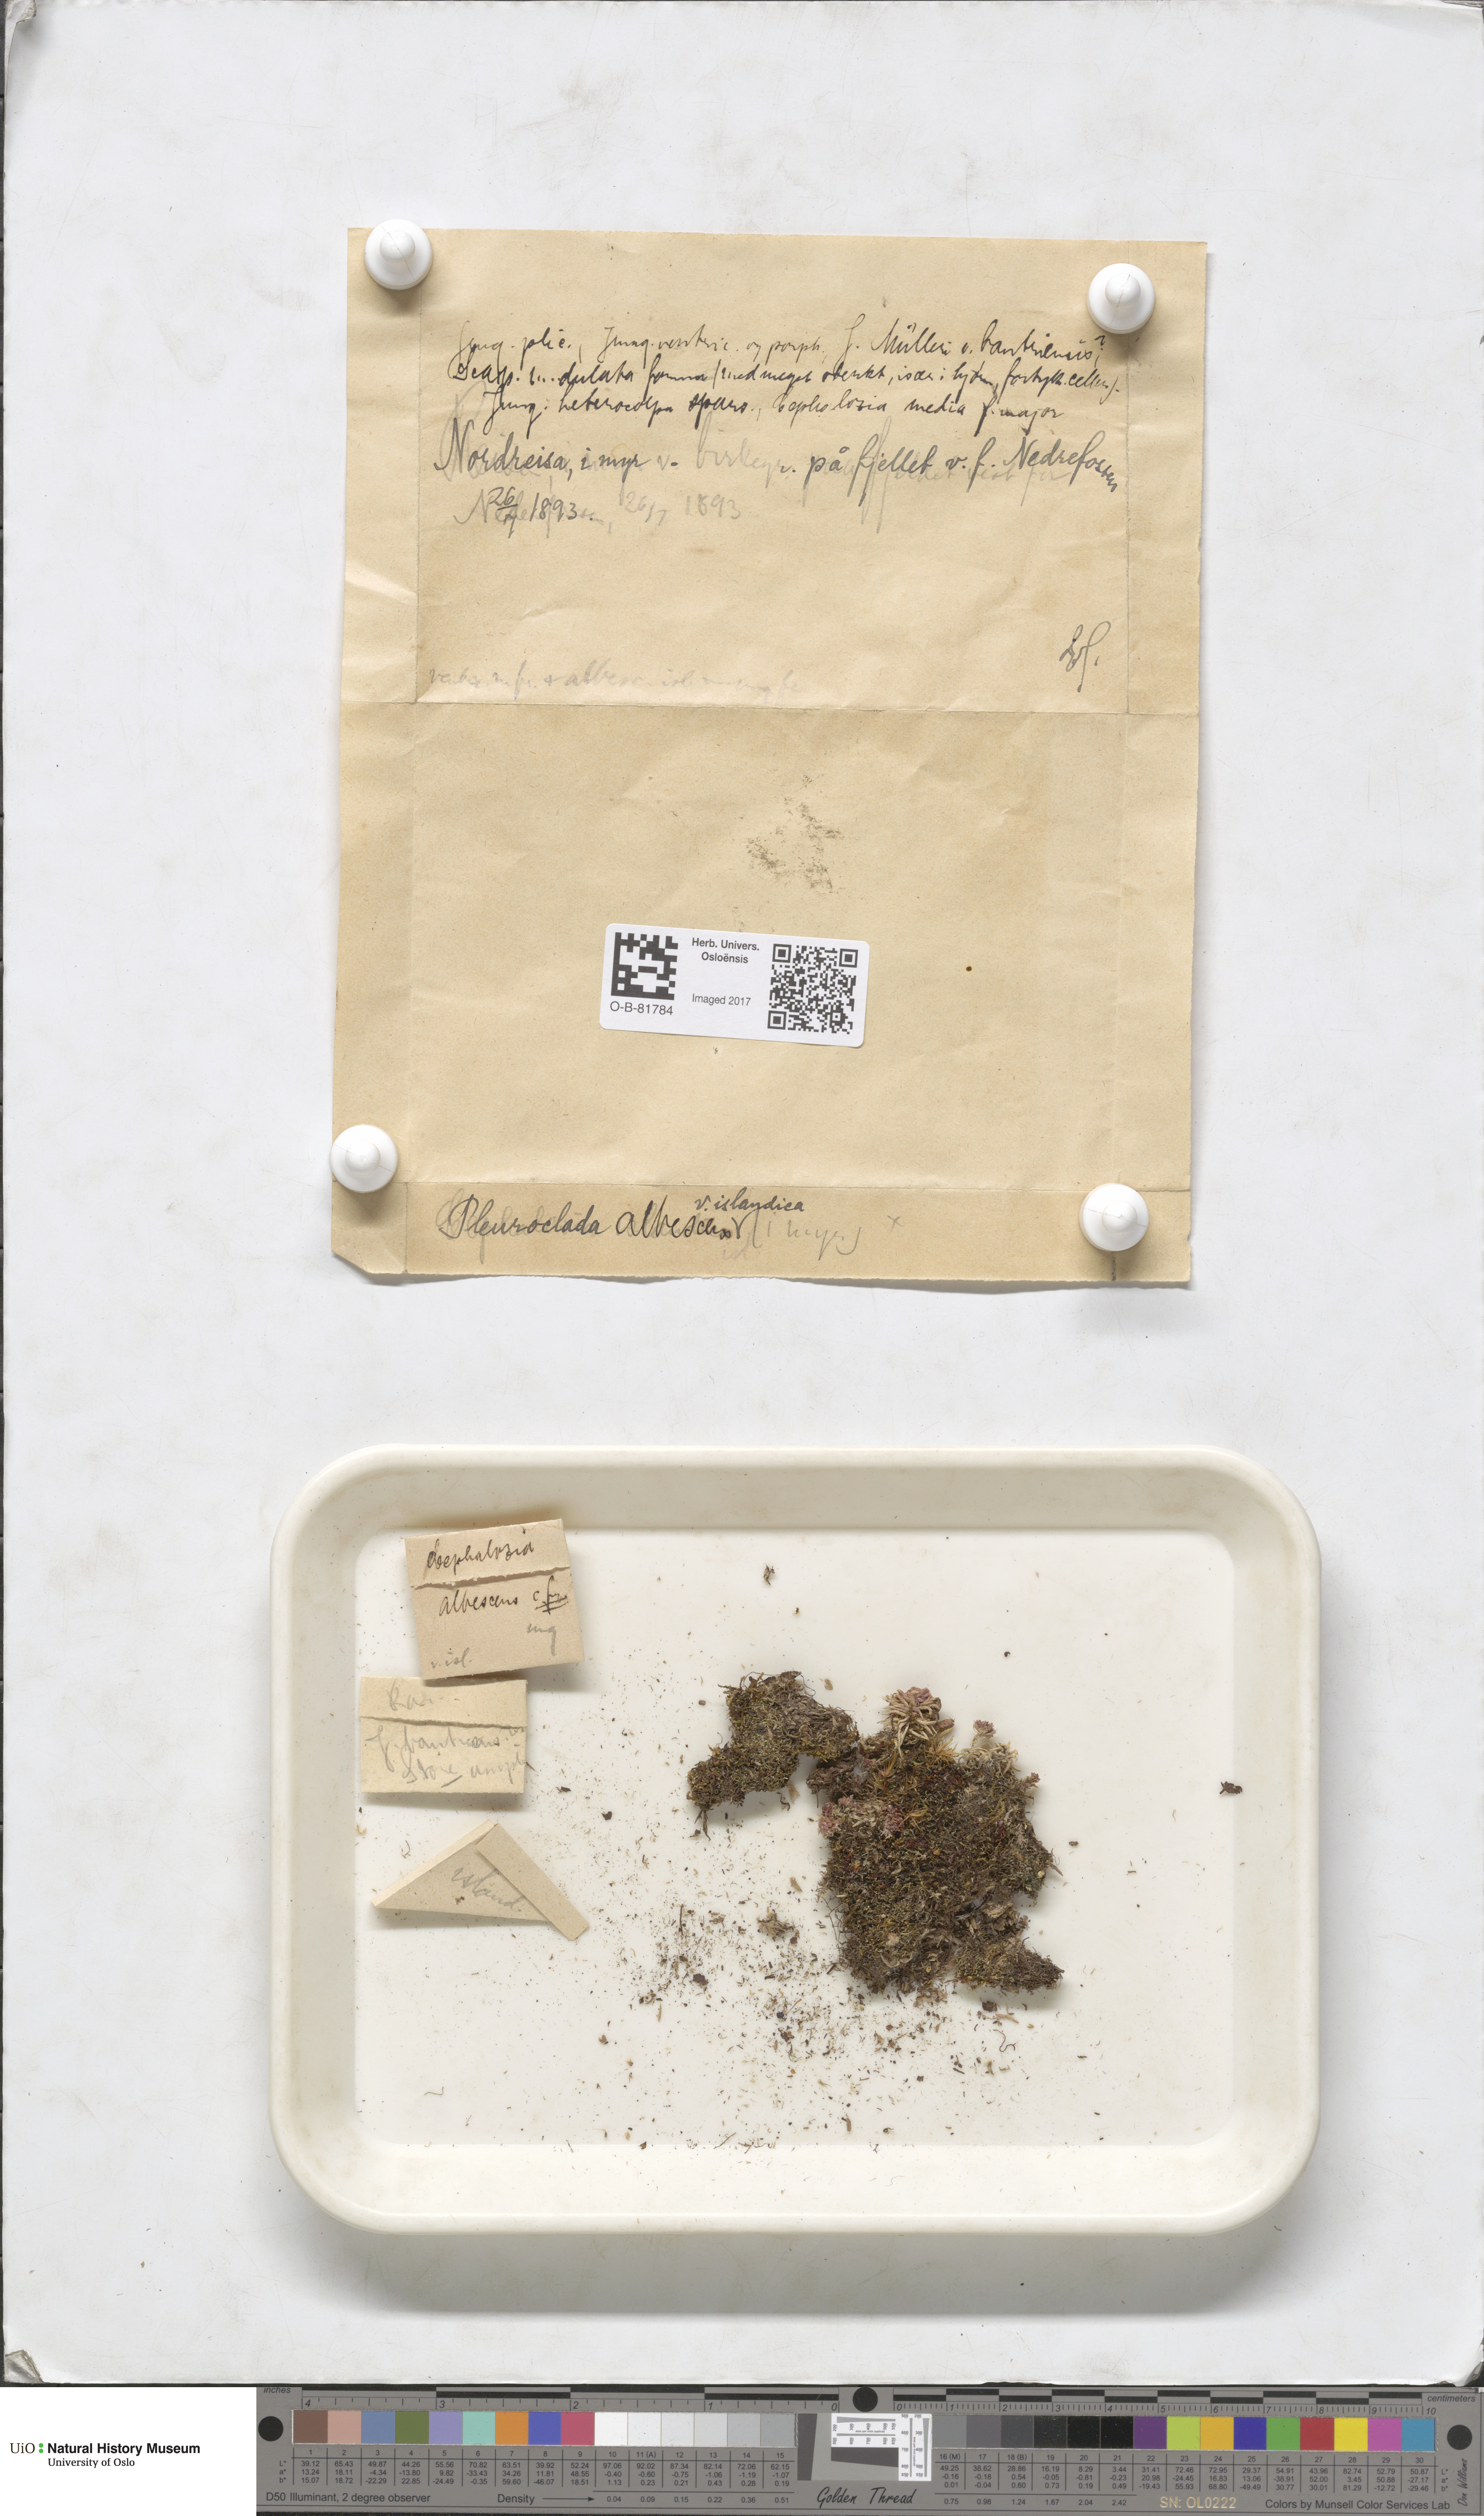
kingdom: Plantae
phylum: Marchantiophyta
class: Jungermanniopsida
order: Jungermanniales
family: Cephaloziaceae
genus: Fuscocephaloziopsis
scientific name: Fuscocephaloziopsis albescens
